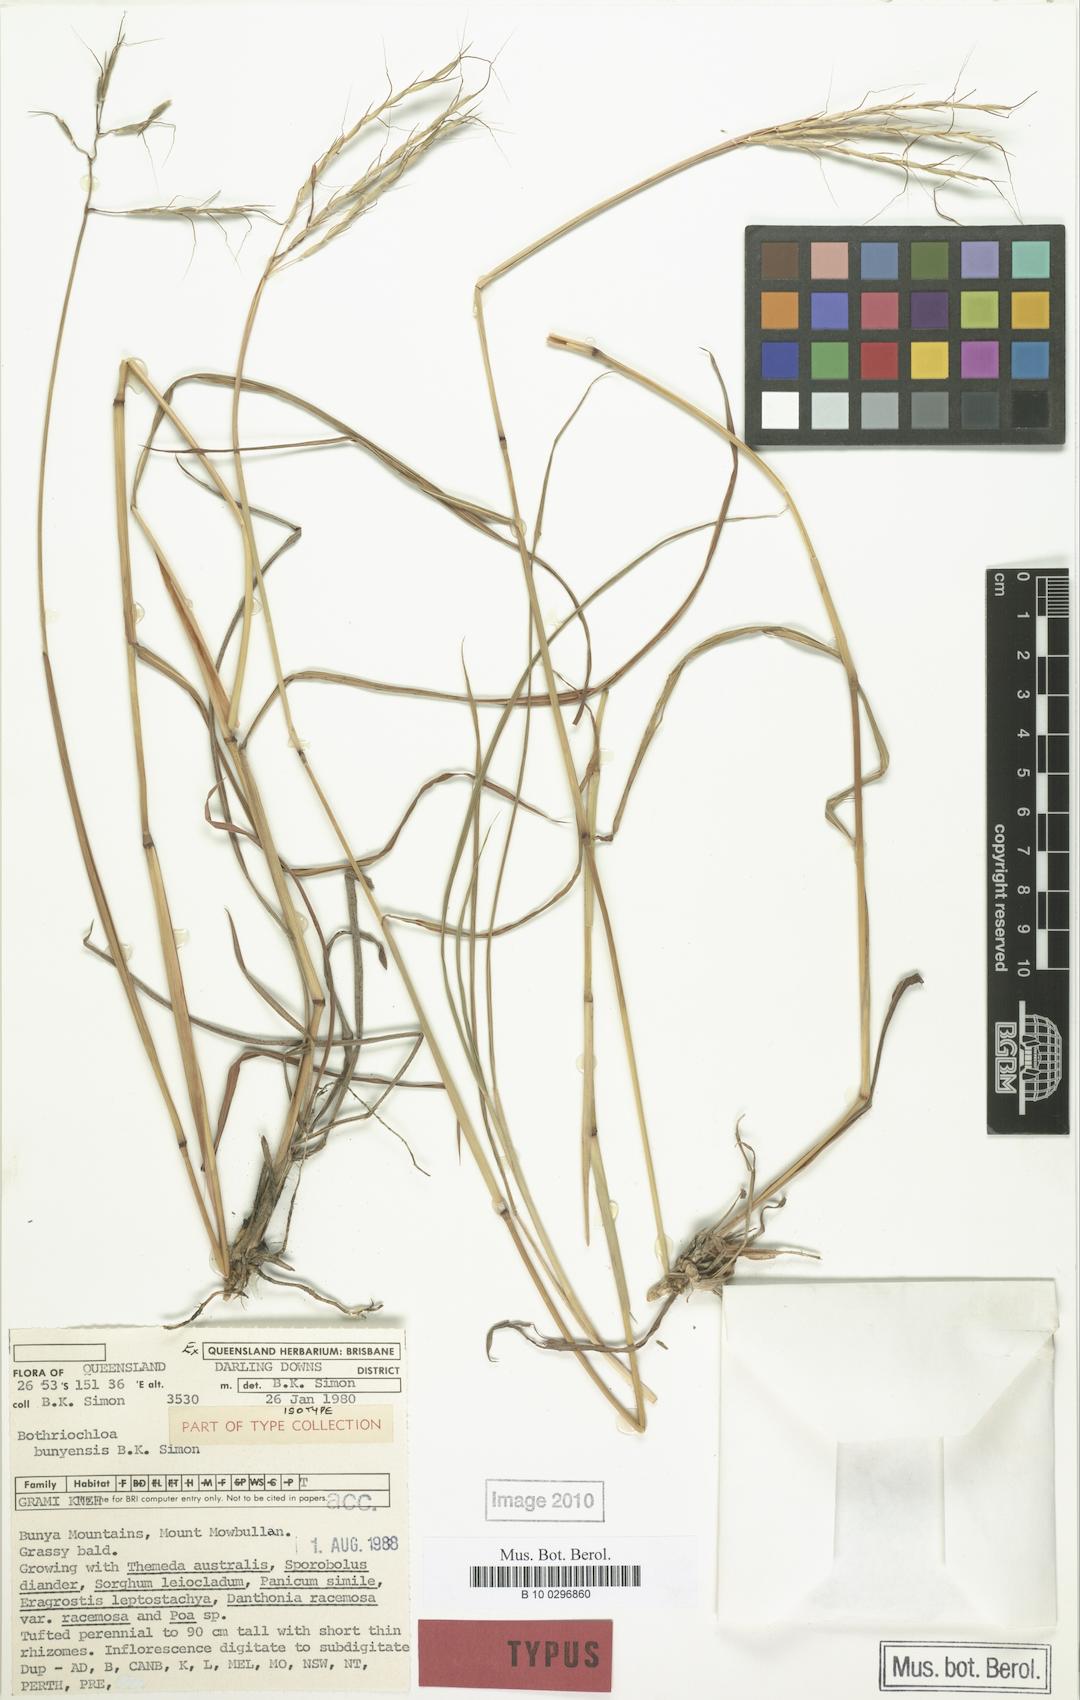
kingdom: Plantae
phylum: Tracheophyta
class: Liliopsida
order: Poales
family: Poaceae
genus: Bothriochloa
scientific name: Bothriochloa bunyensis
